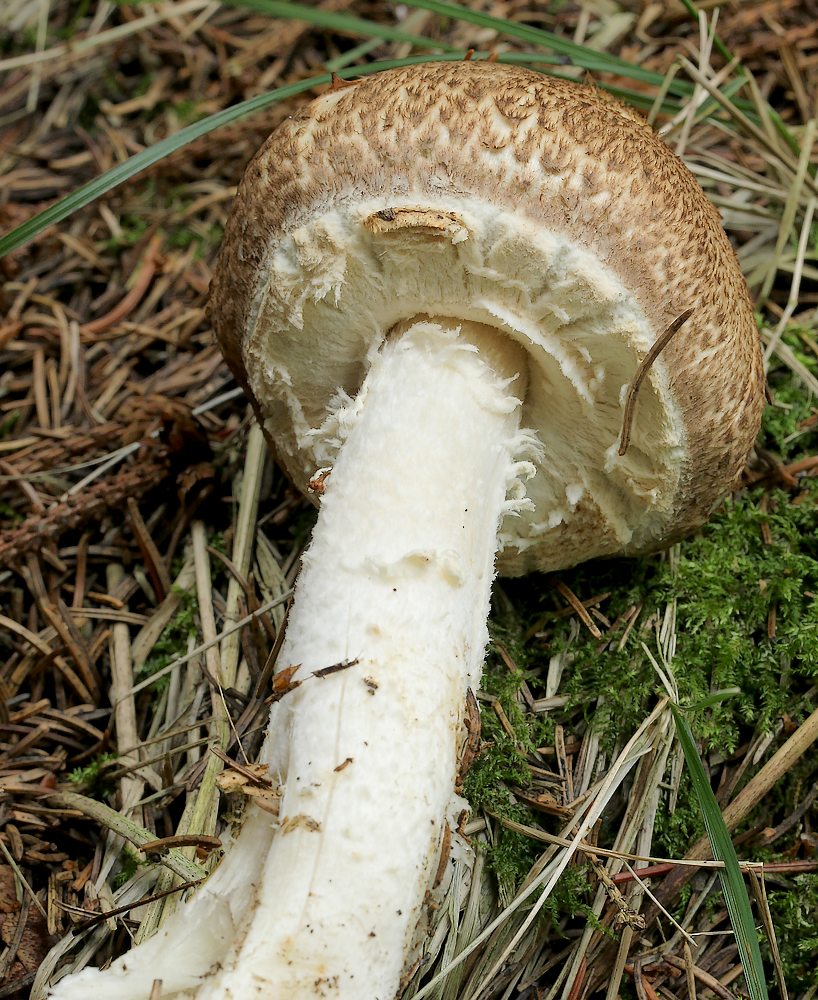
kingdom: Fungi
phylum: Basidiomycota
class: Agaricomycetes
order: Agaricales
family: Agaricaceae
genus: Agaricus
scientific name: Agaricus augustus
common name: prægtig champignon
